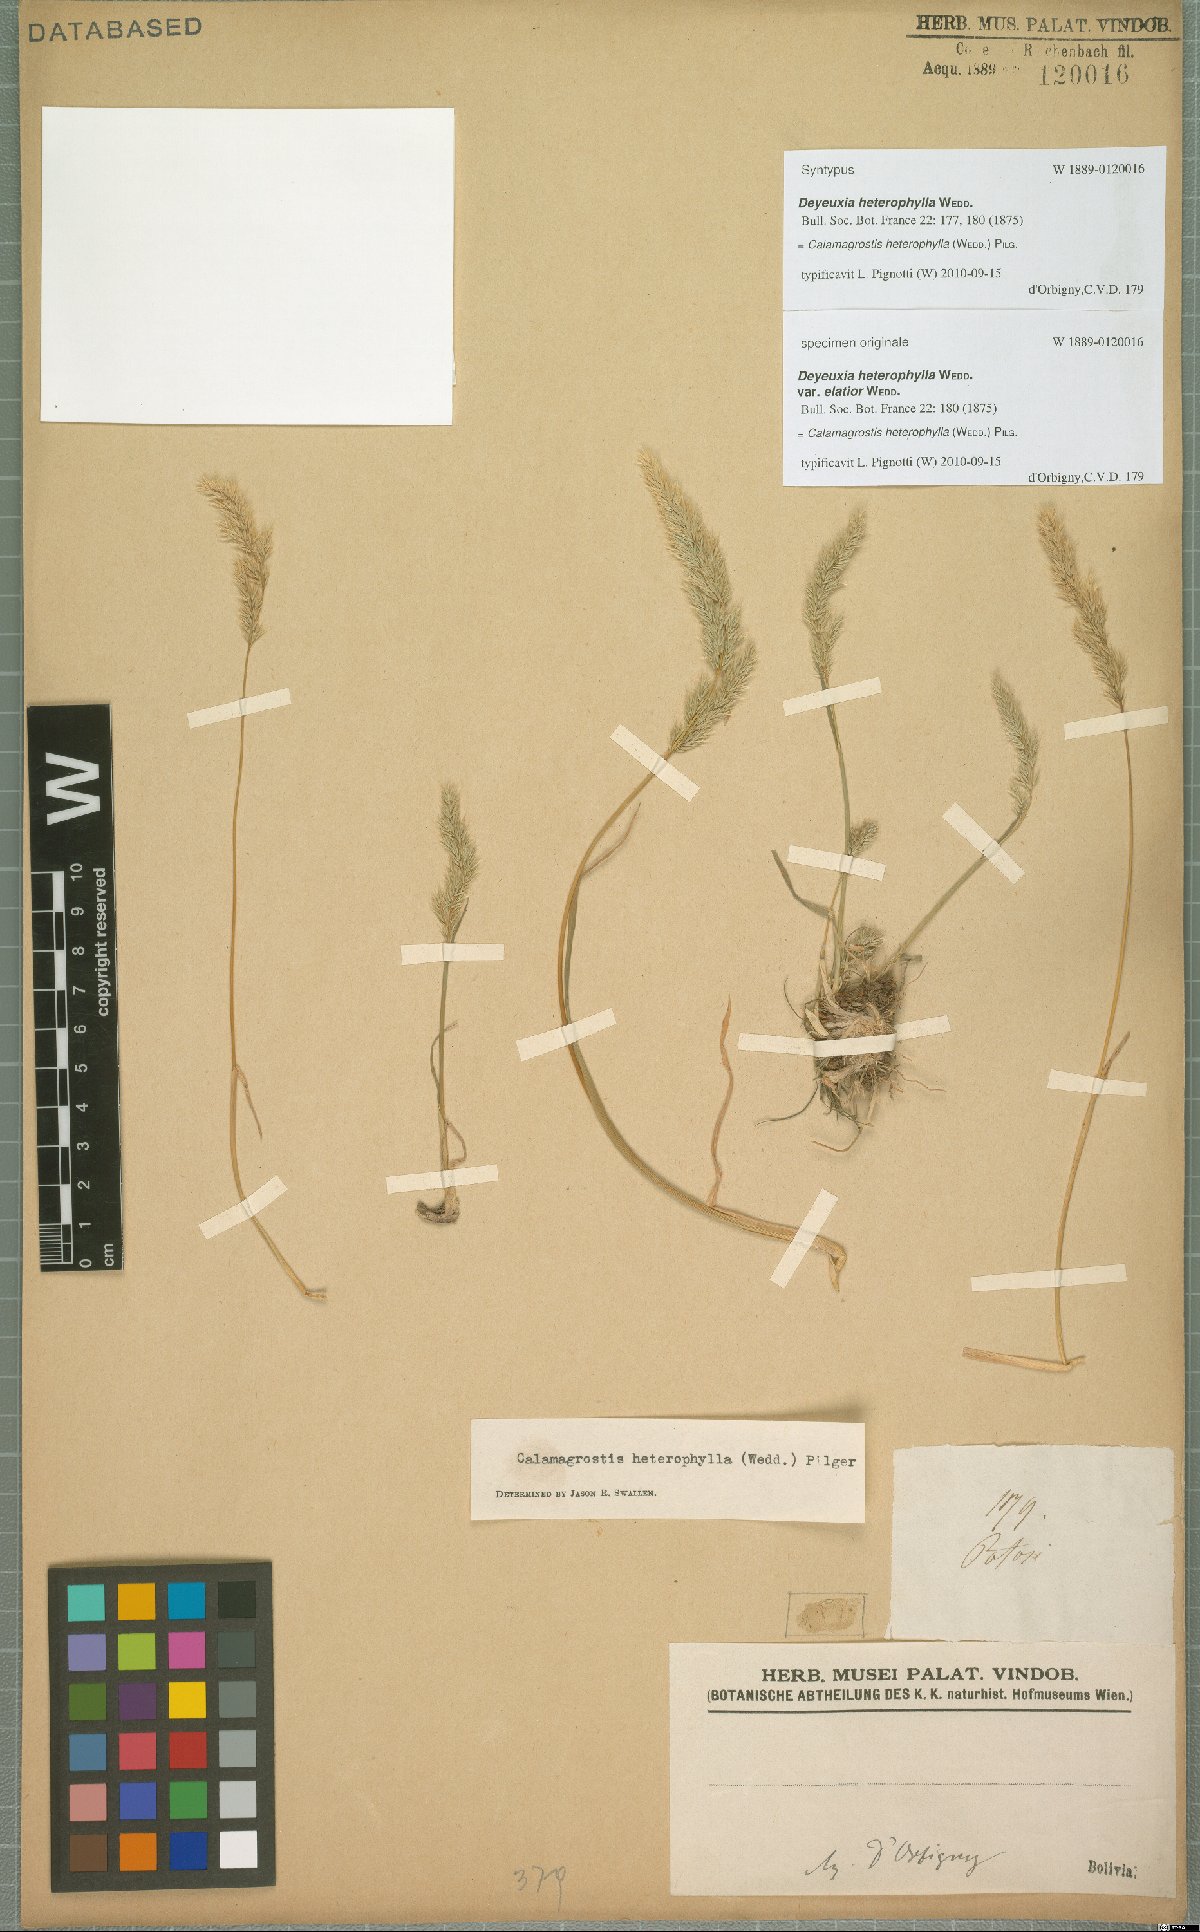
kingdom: Plantae
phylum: Tracheophyta
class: Liliopsida
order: Poales
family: Poaceae
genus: Cinnagrostis
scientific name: Cinnagrostis heterophylla
